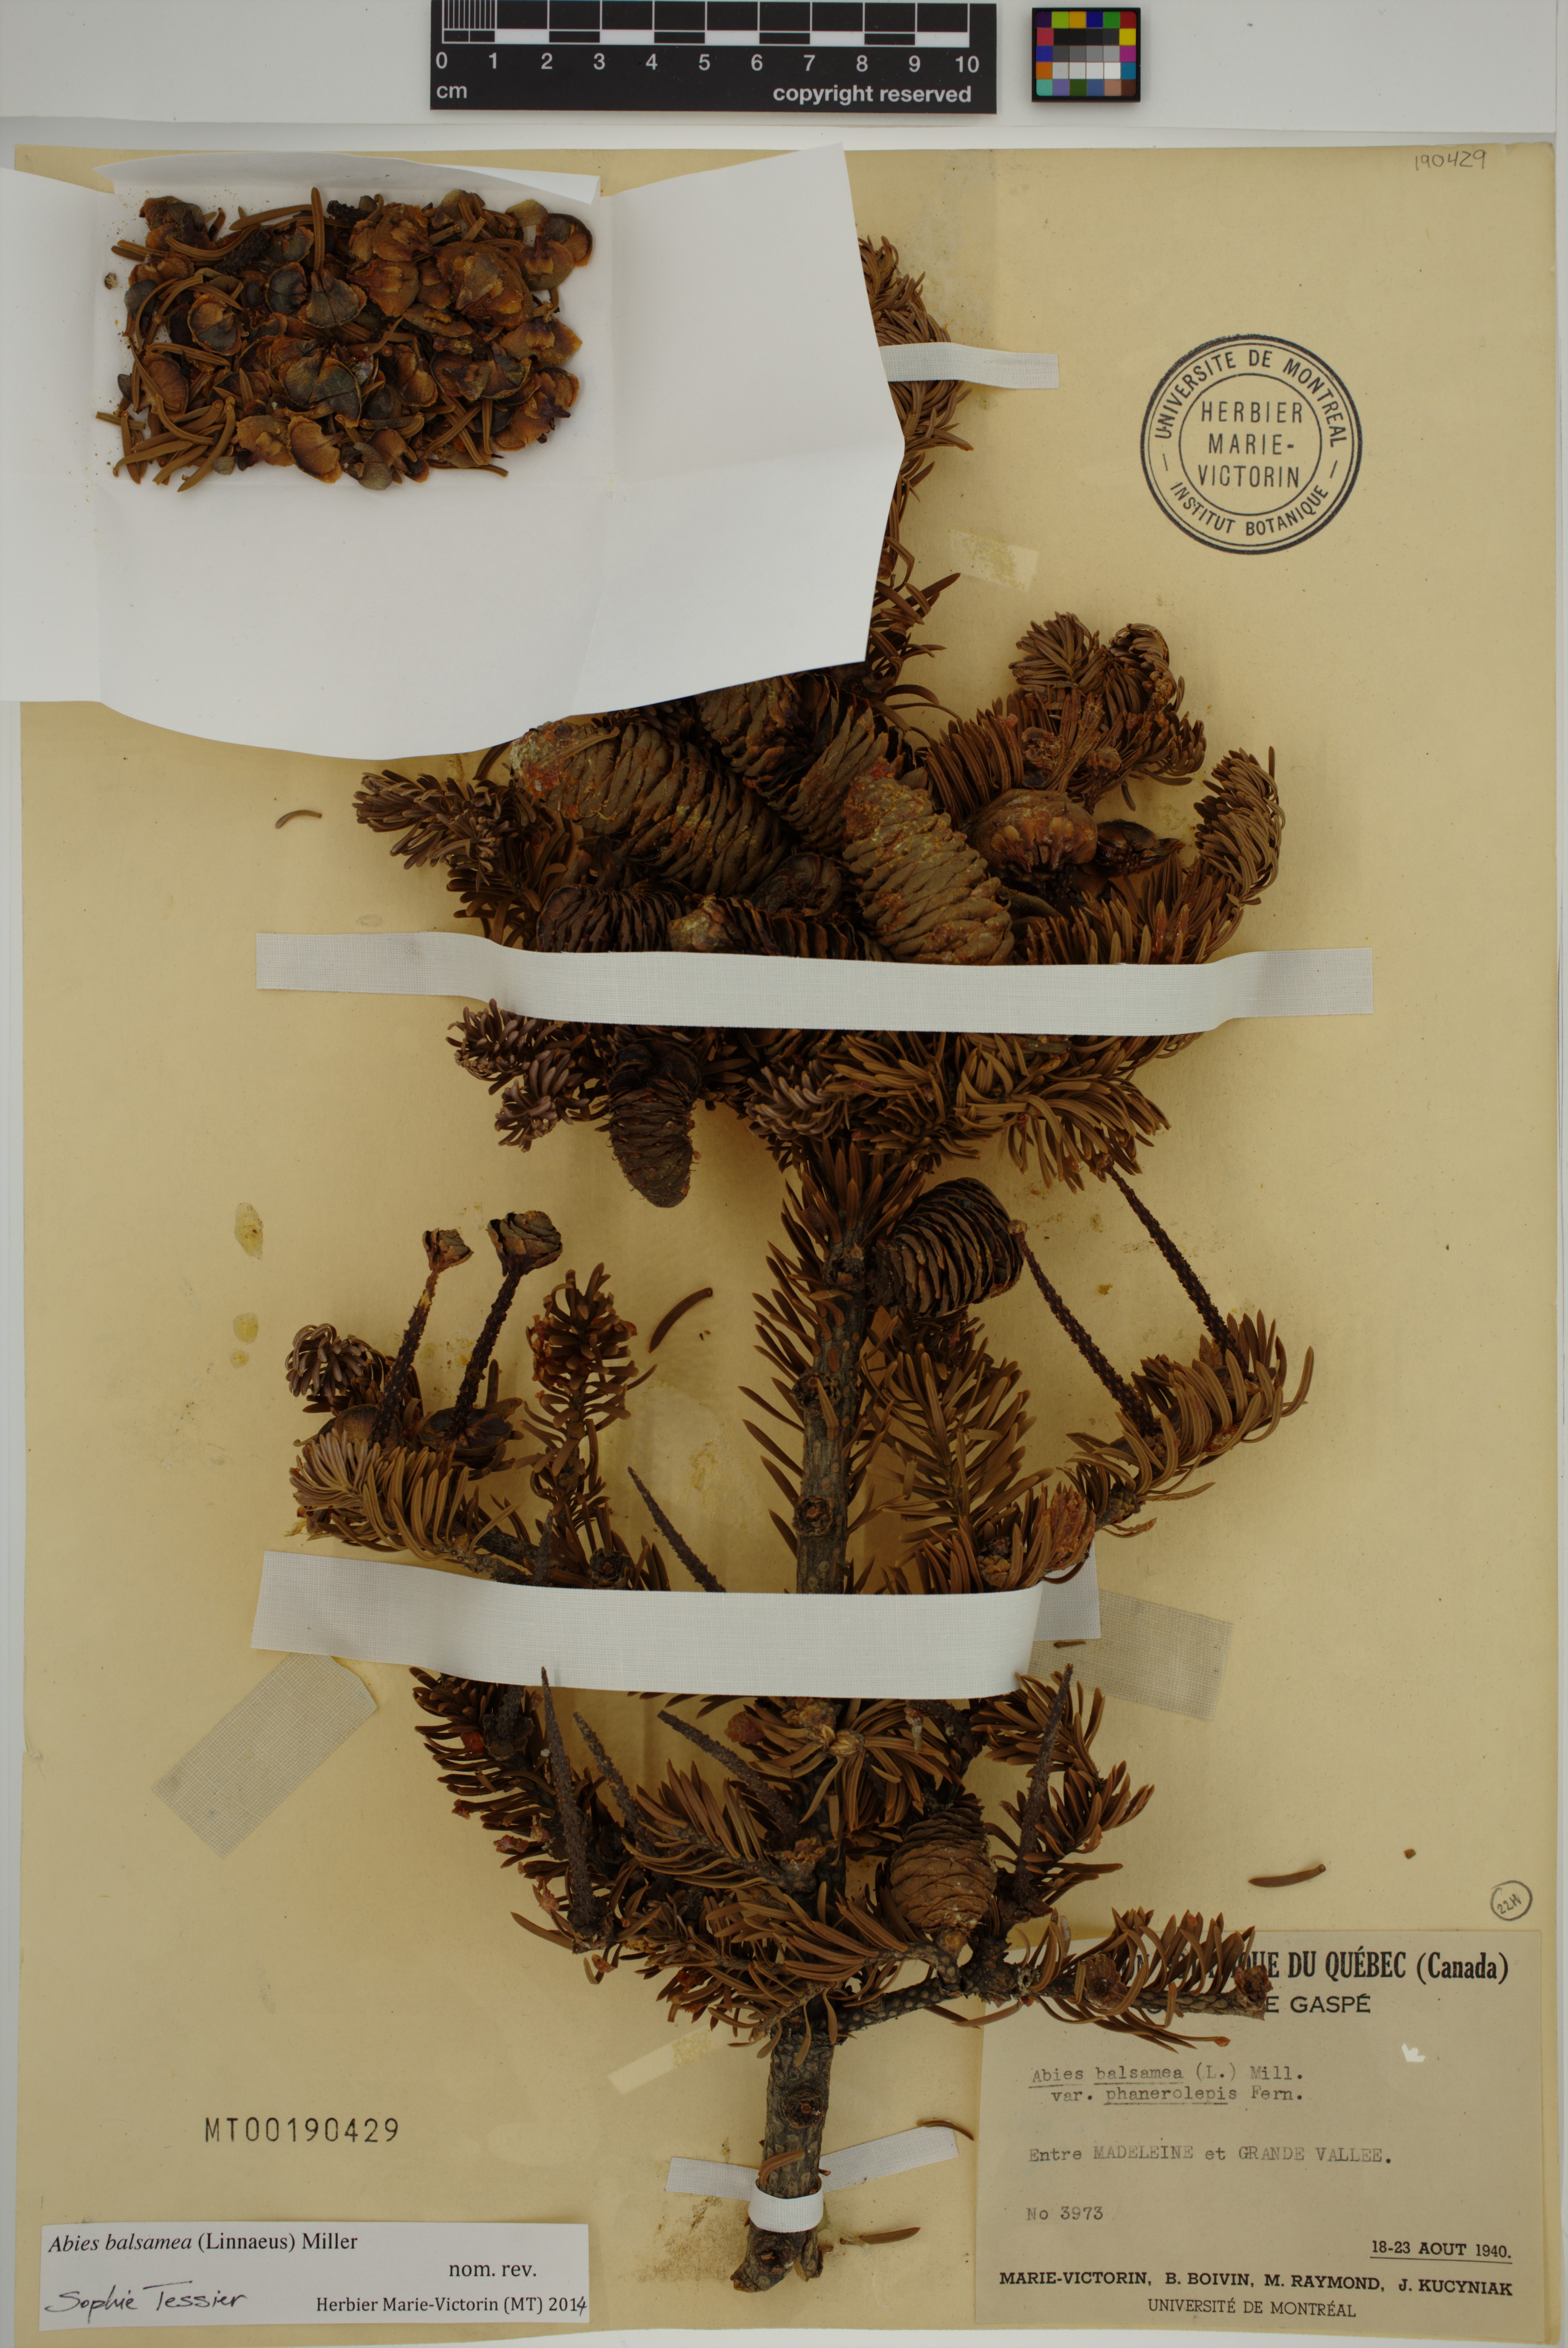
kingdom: Plantae
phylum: Tracheophyta
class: Pinopsida
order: Pinales
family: Pinaceae
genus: Abies
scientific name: Abies balsamea
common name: Balsam fir
